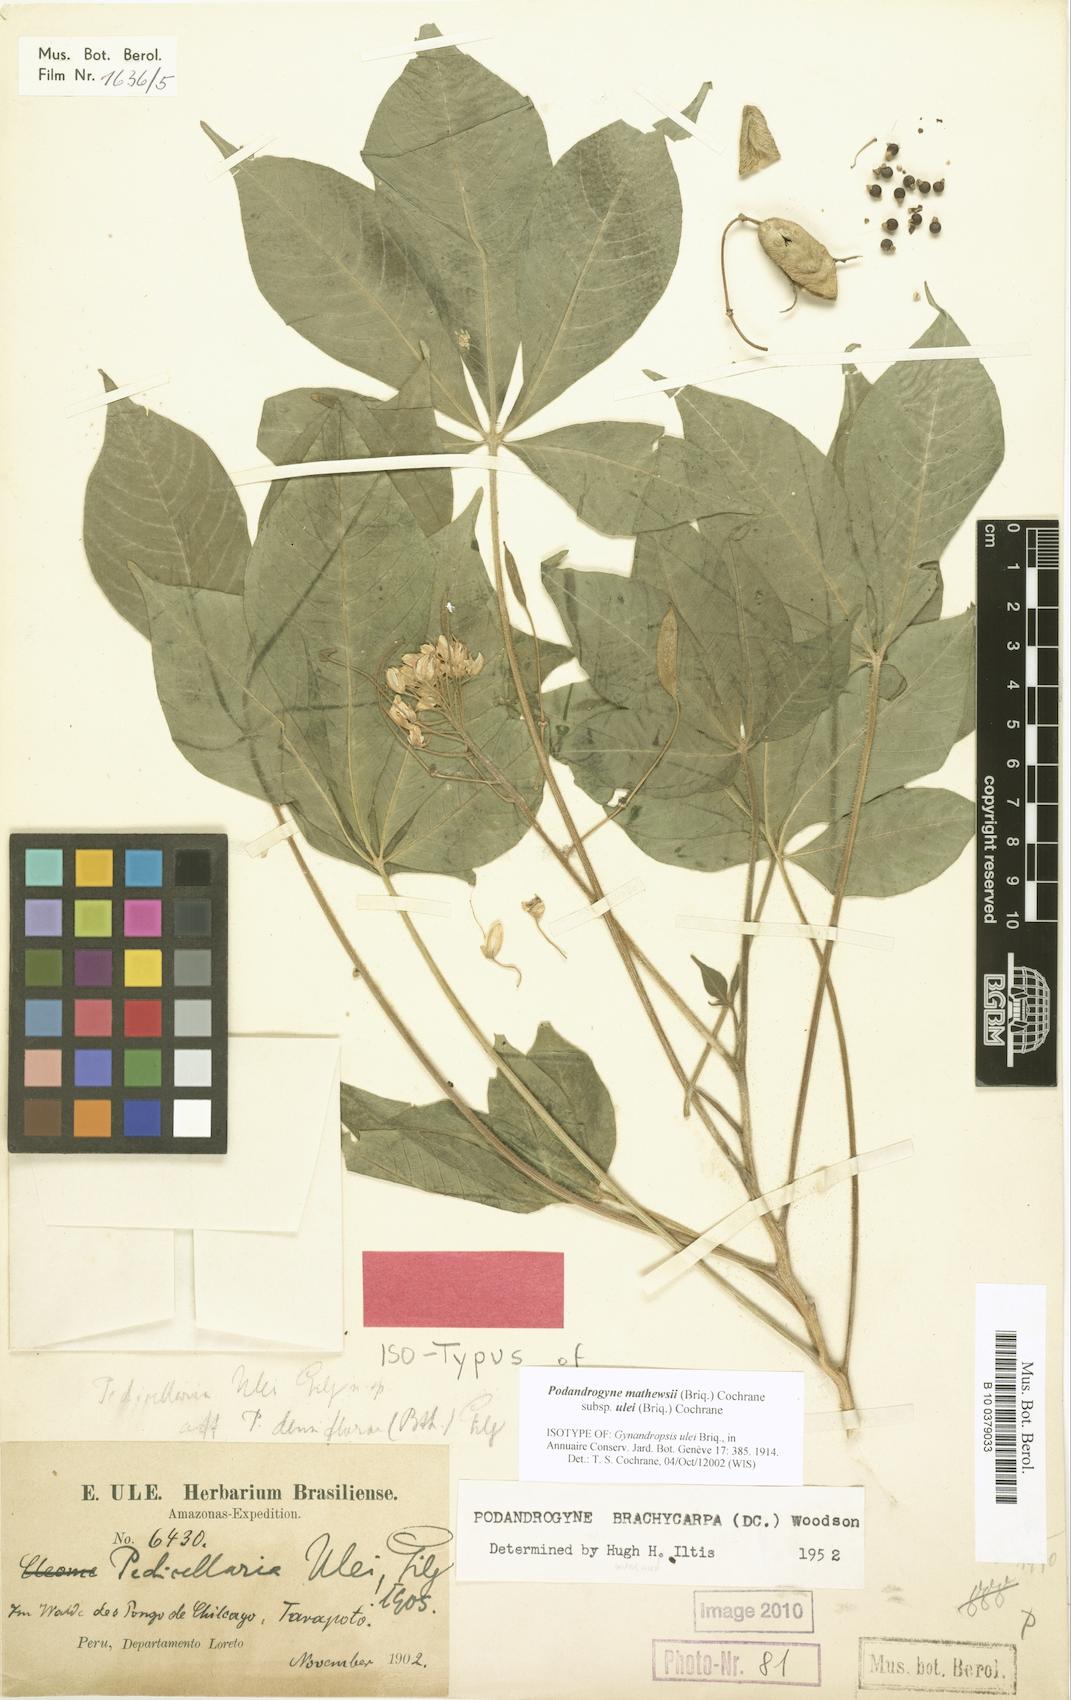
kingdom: Plantae
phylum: Tracheophyta
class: Magnoliopsida
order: Brassicales
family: Cleomaceae
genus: Podandrogyne
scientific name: Podandrogyne mathewsii
